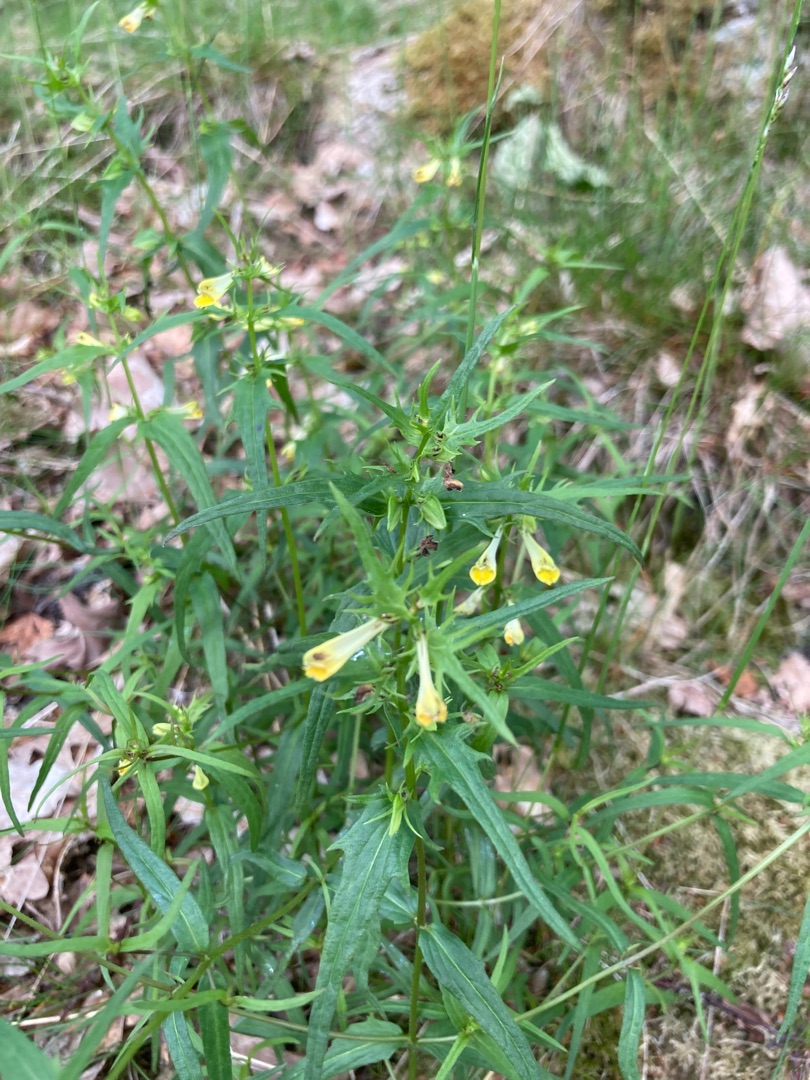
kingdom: Plantae
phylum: Tracheophyta
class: Magnoliopsida
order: Lamiales
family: Orobanchaceae
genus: Melampyrum
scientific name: Melampyrum pratense
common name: Almindelig kohvede
